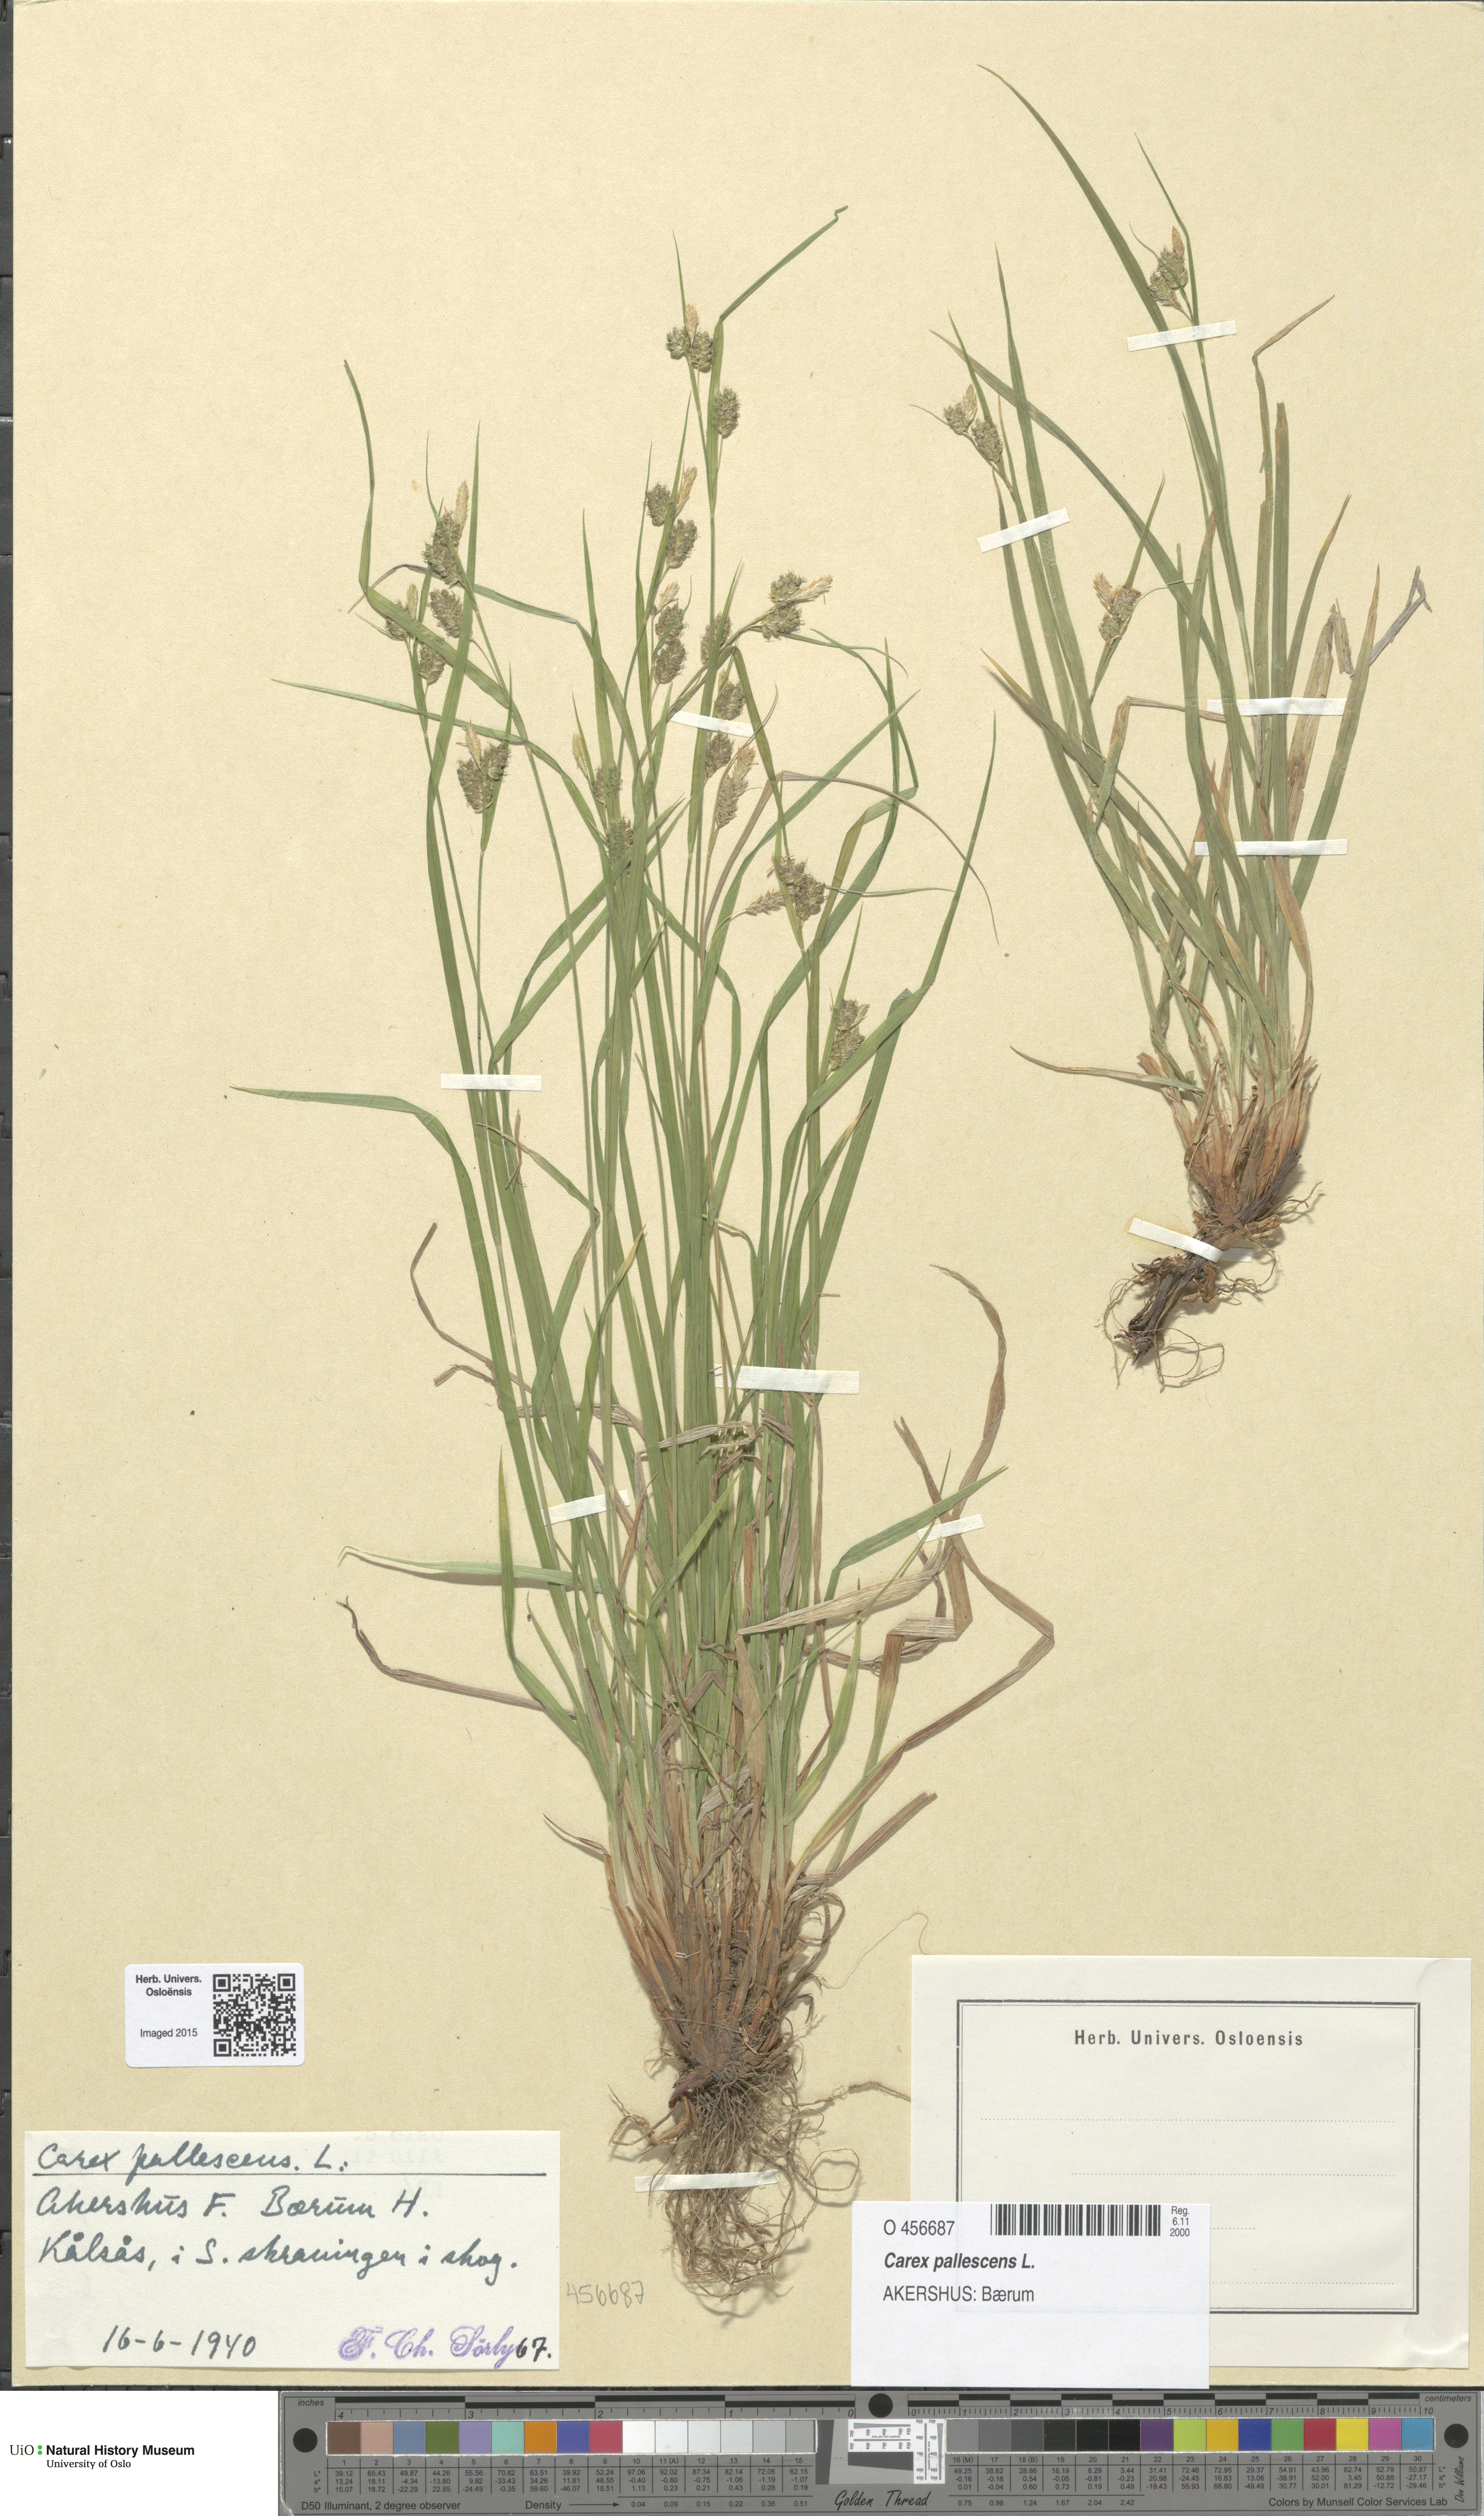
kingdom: Plantae
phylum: Tracheophyta
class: Liliopsida
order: Poales
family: Cyperaceae
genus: Carex
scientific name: Carex pallescens
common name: Pale sedge
